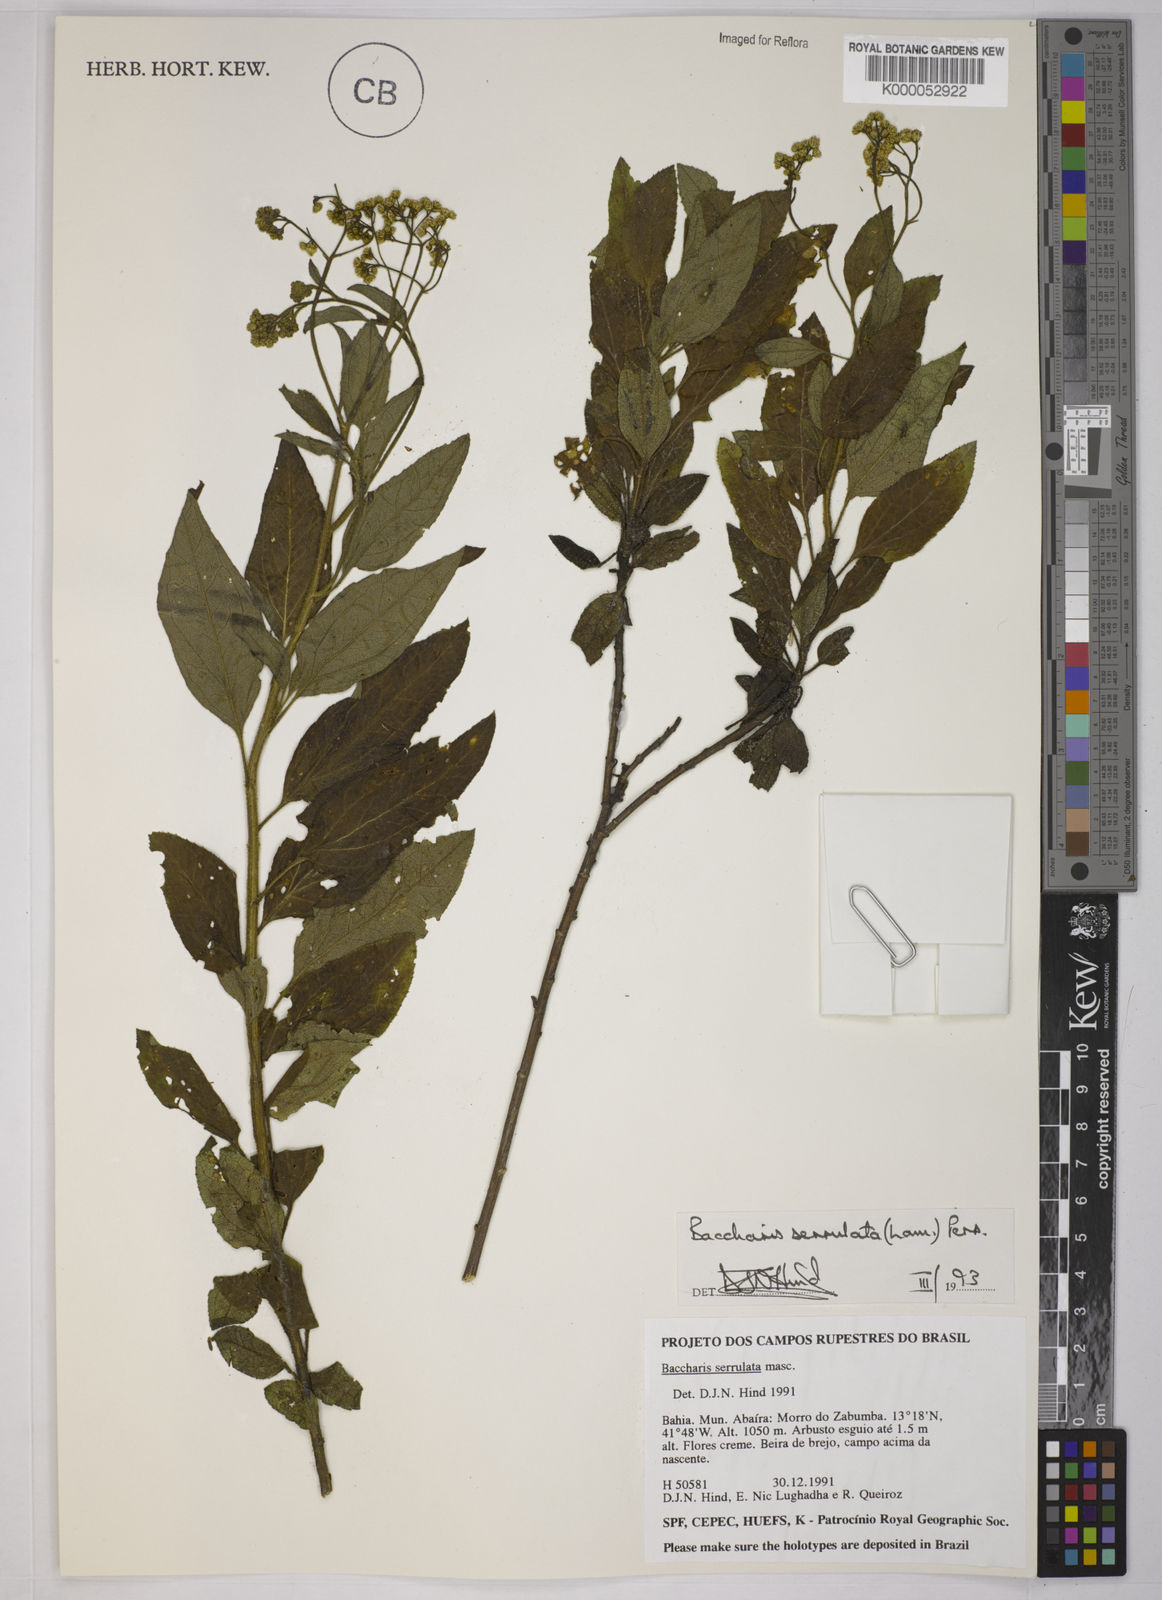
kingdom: Plantae
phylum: Tracheophyta
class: Magnoliopsida
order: Asterales
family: Asteraceae
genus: Baccharis
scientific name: Baccharis serrulata
